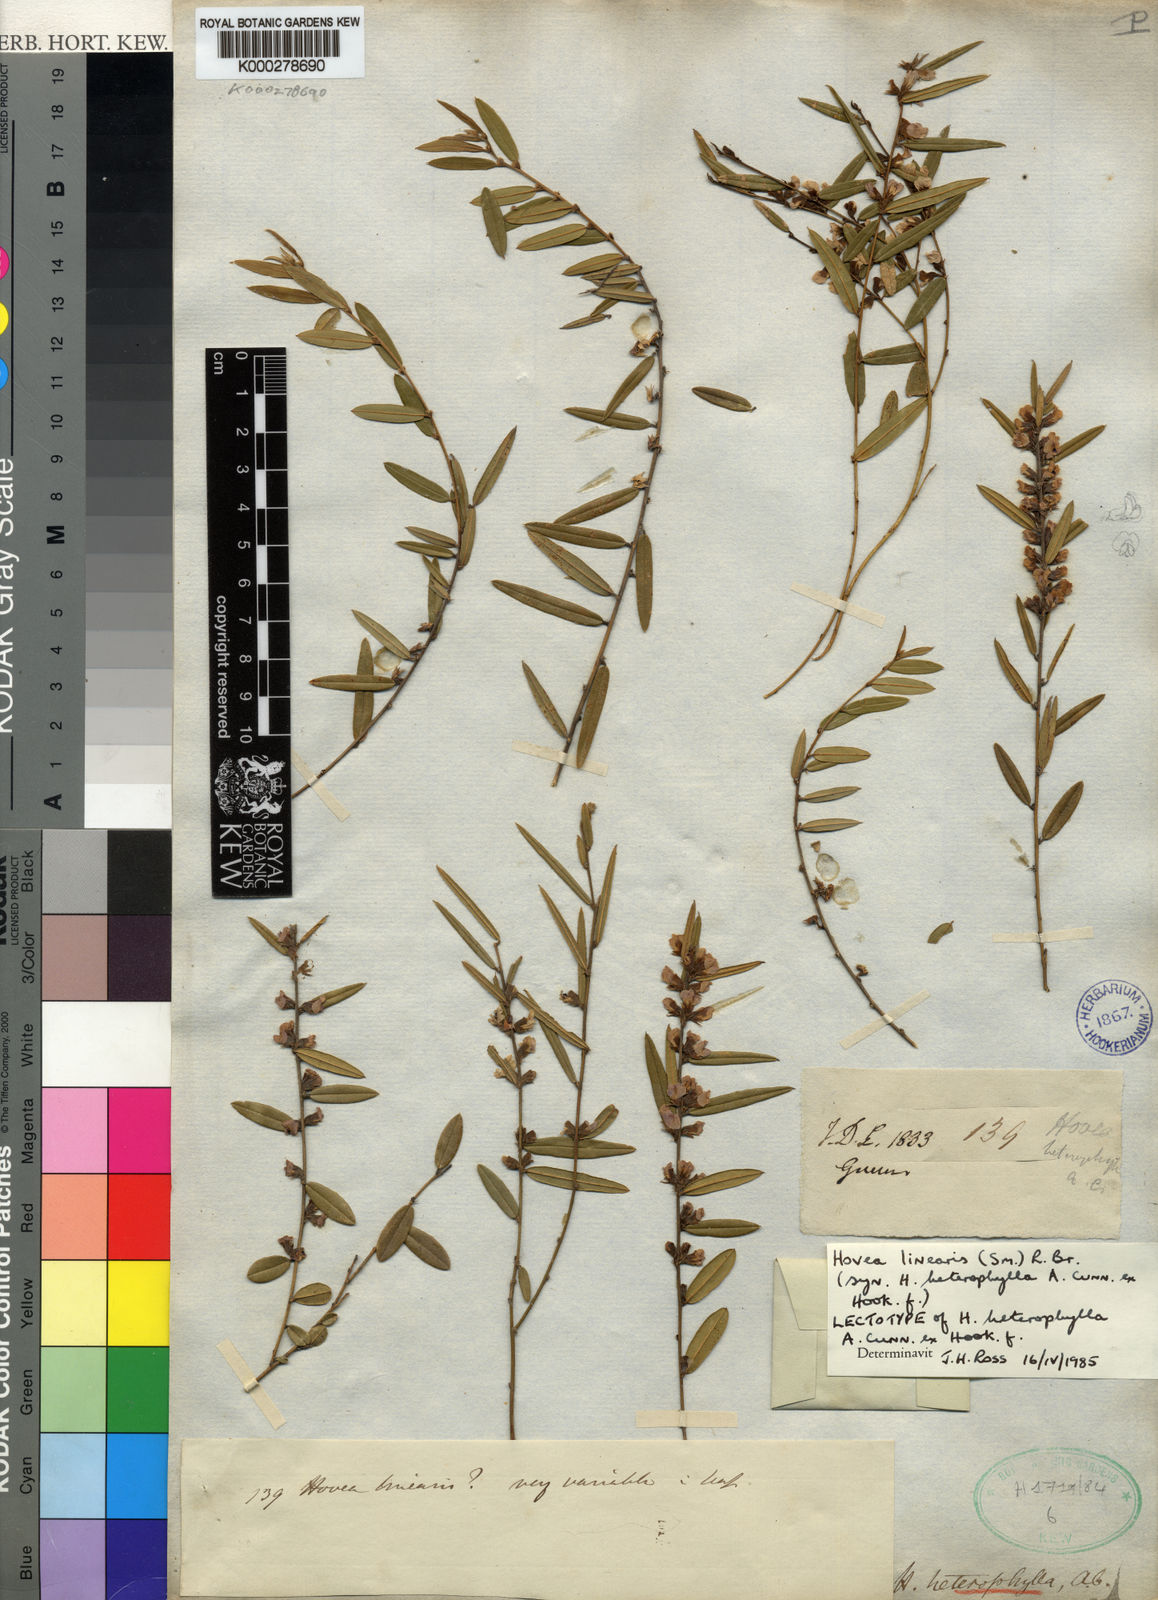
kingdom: Plantae
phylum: Tracheophyta
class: Magnoliopsida
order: Fabales
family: Fabaceae
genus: Hovea
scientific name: Hovea heterophylla
